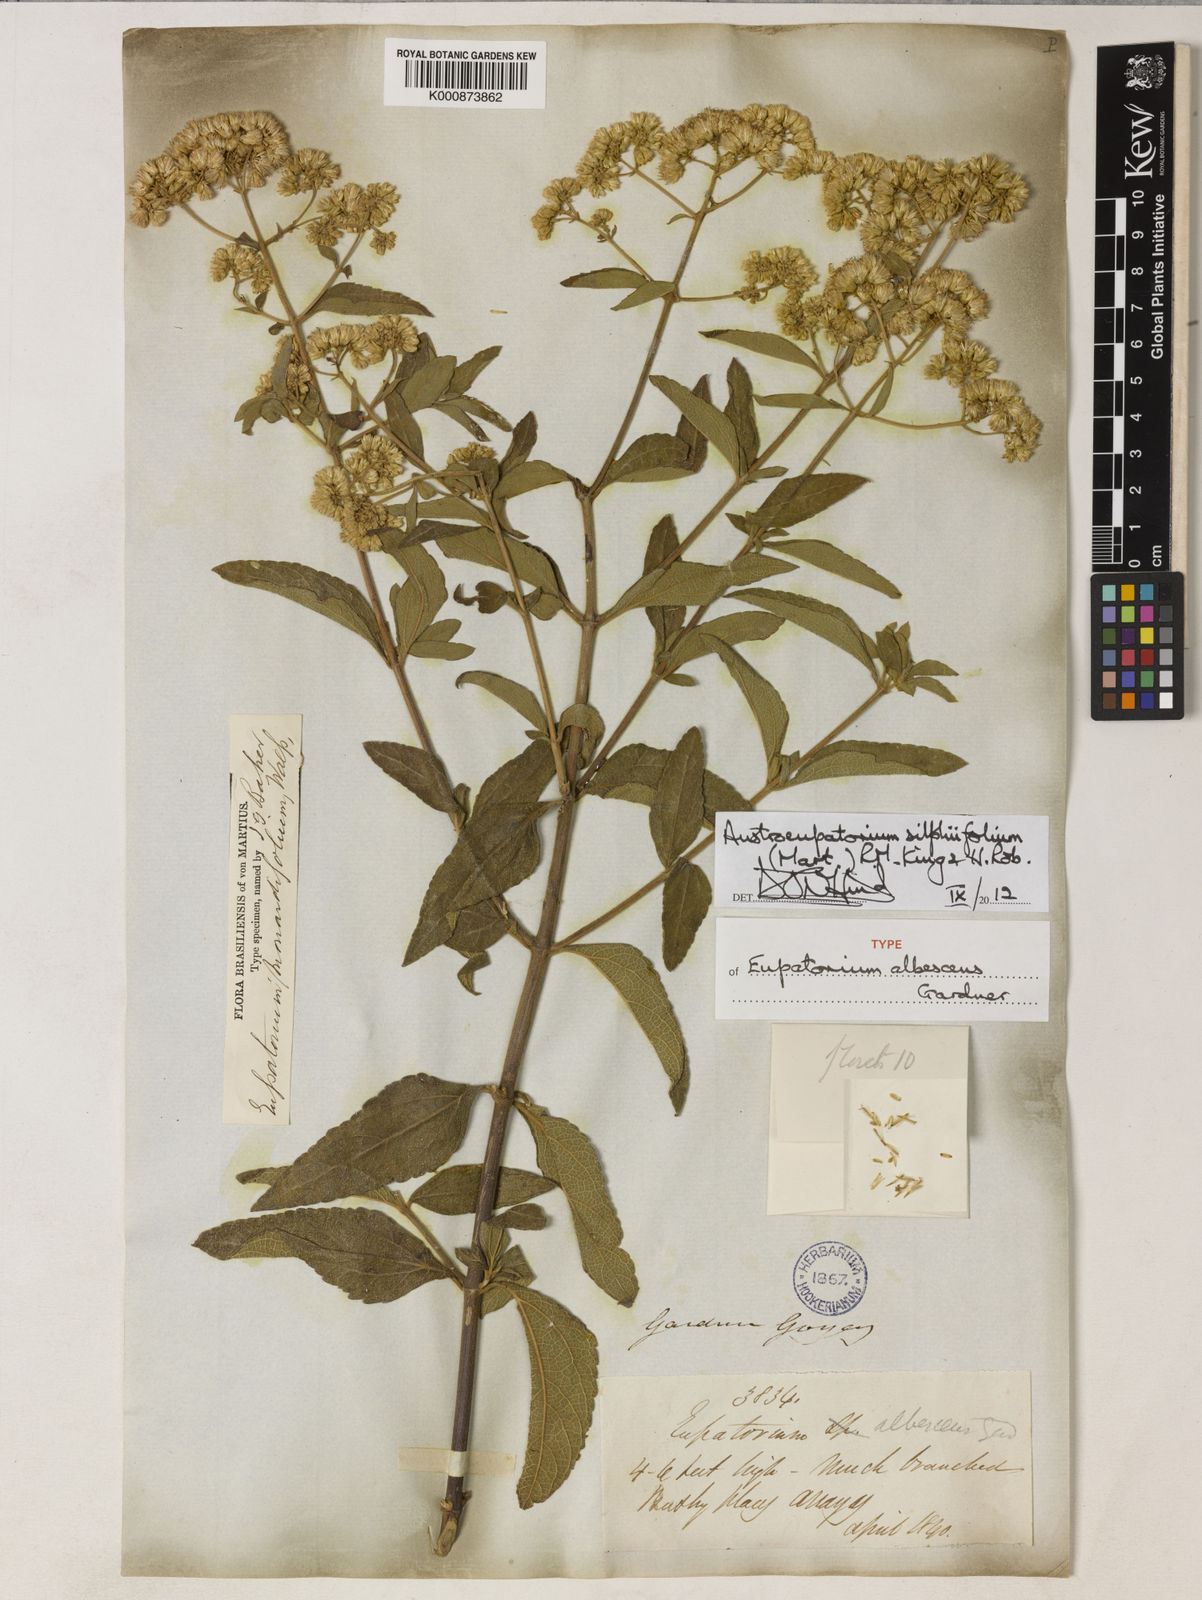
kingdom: Plantae
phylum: Tracheophyta
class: Magnoliopsida
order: Asterales
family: Asteraceae
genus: Austroeupatorium
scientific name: Austroeupatorium silphiifolium
